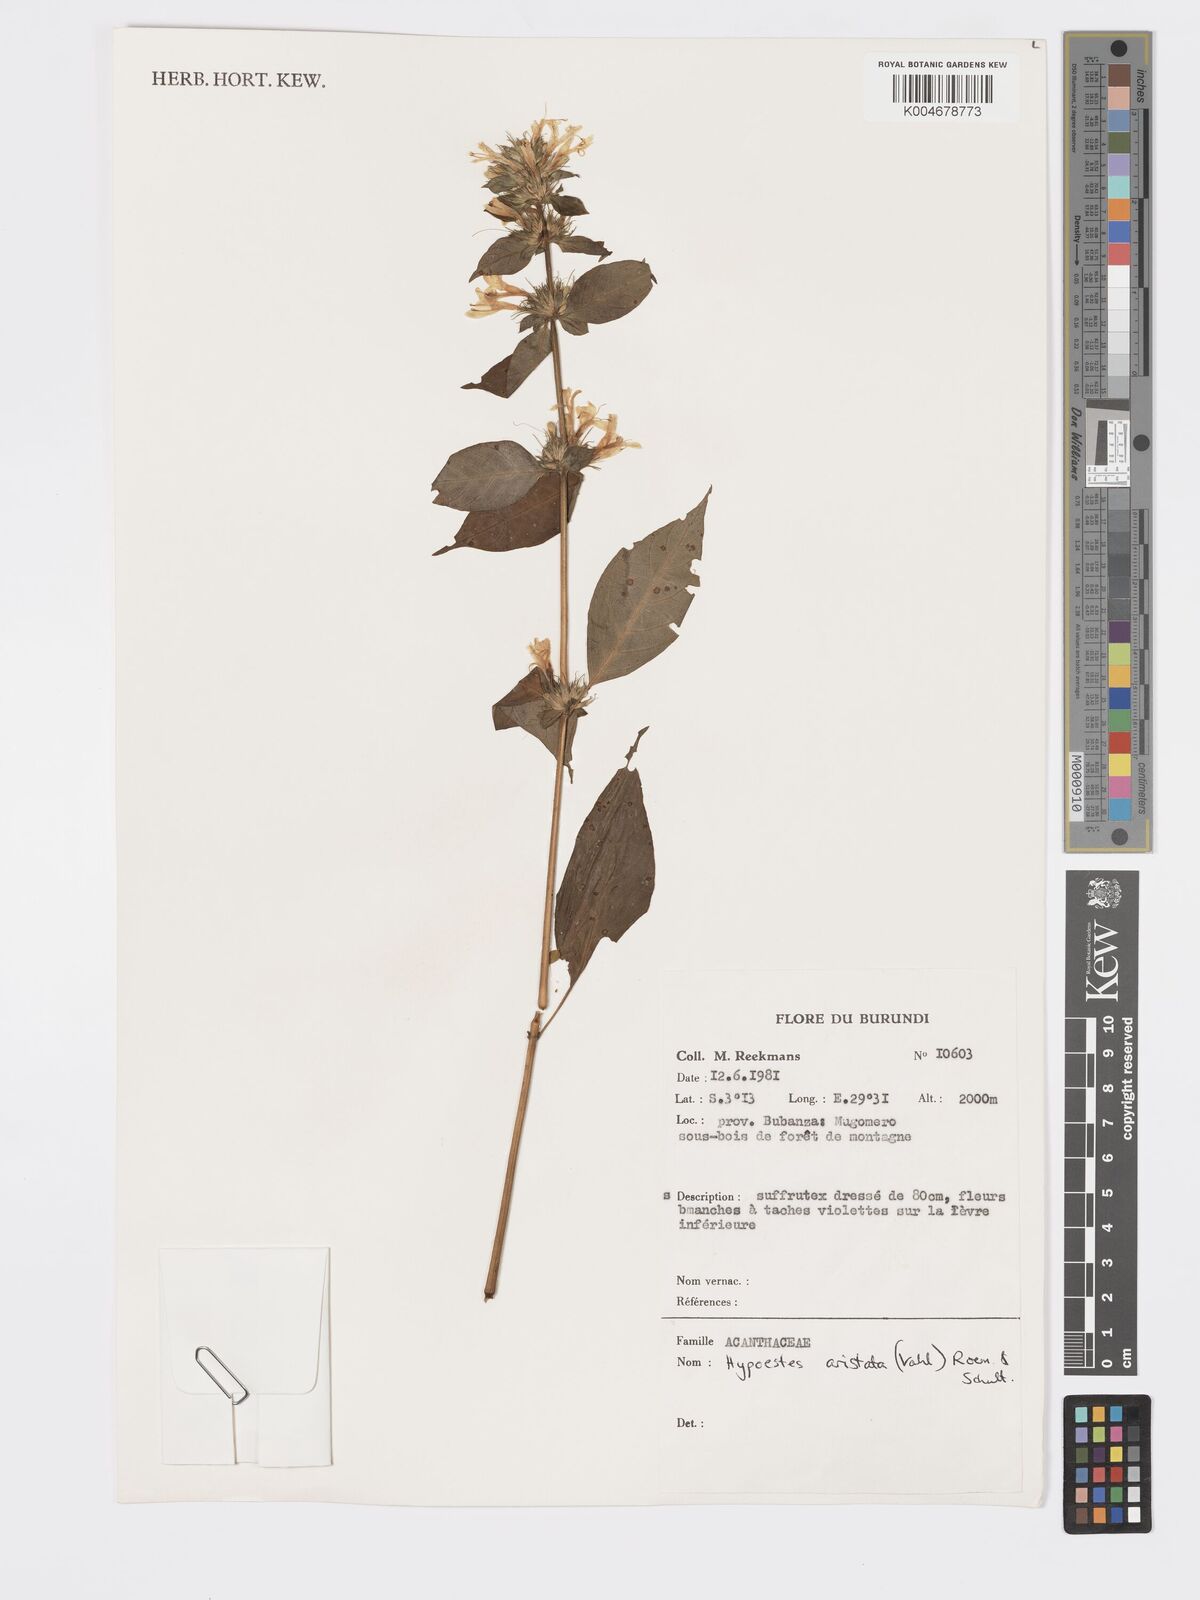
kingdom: Plantae
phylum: Tracheophyta
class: Magnoliopsida
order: Lamiales
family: Acanthaceae
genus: Hypoestes
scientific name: Hypoestes aristata
